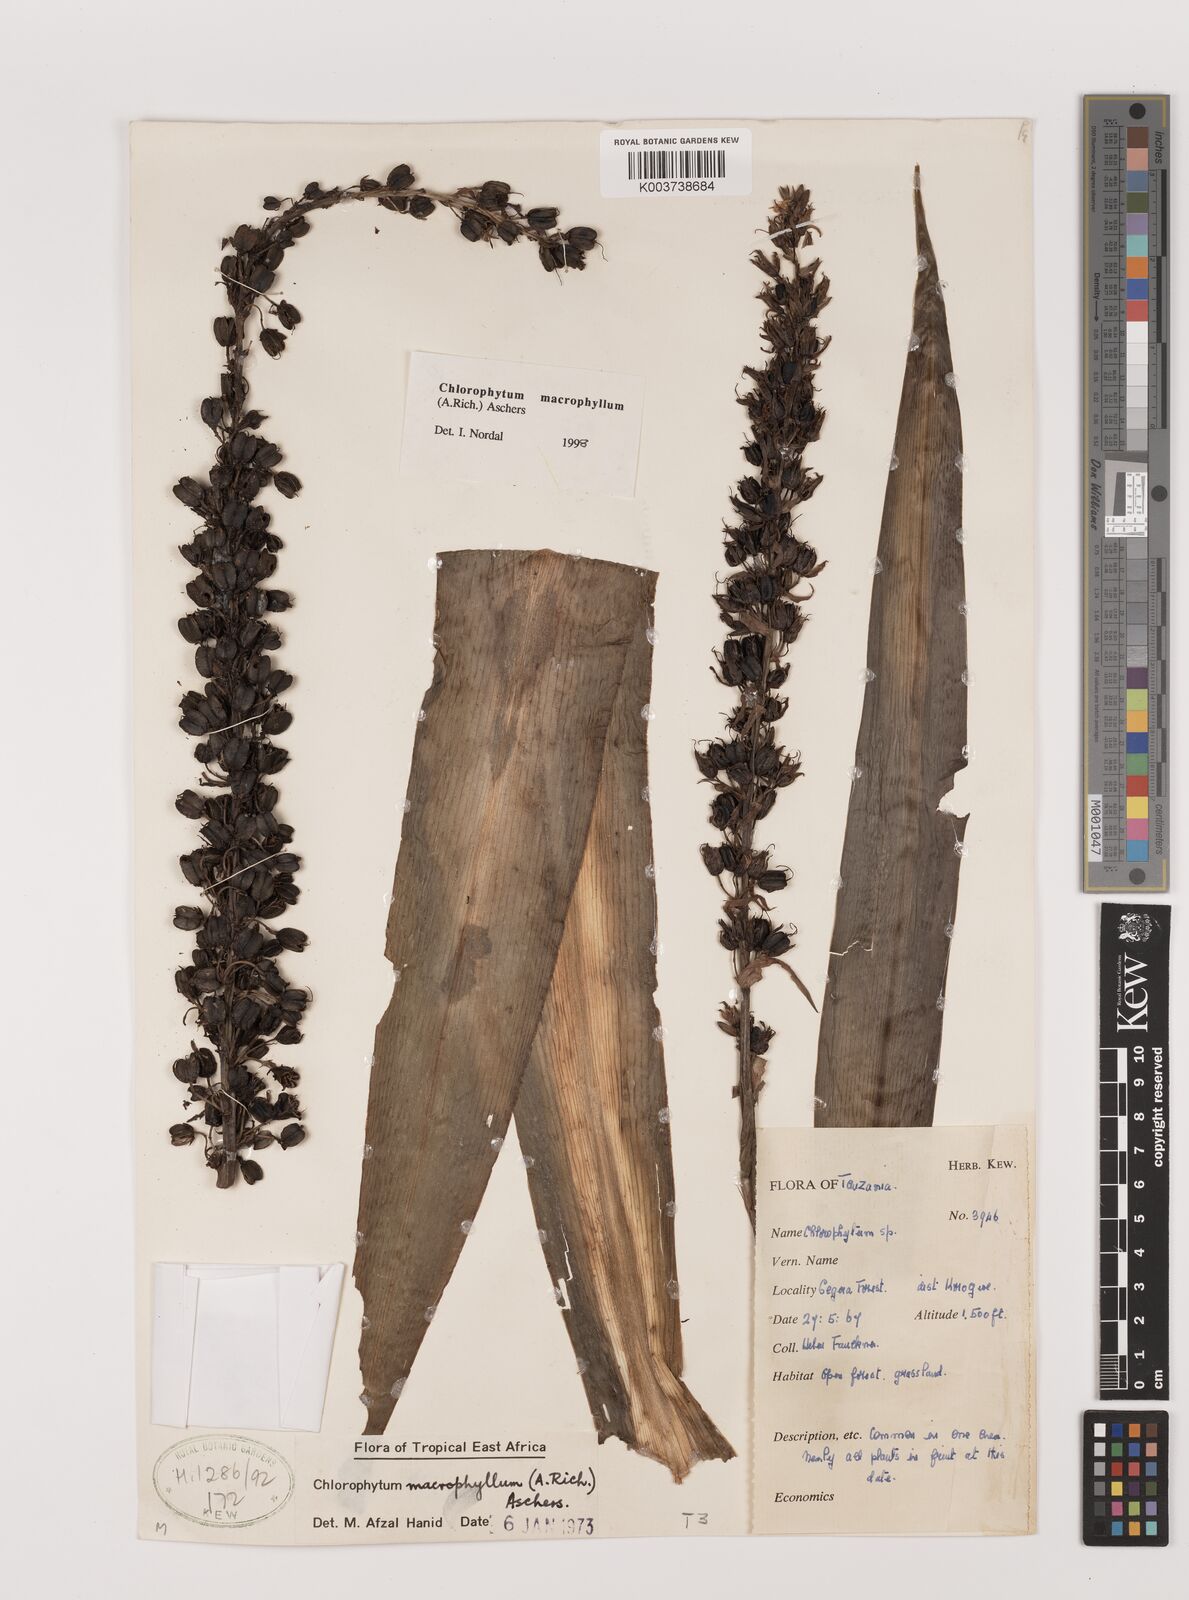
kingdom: Plantae
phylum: Tracheophyta
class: Liliopsida
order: Asparagales
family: Asparagaceae
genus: Chlorophytum
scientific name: Chlorophytum macrophyllum
